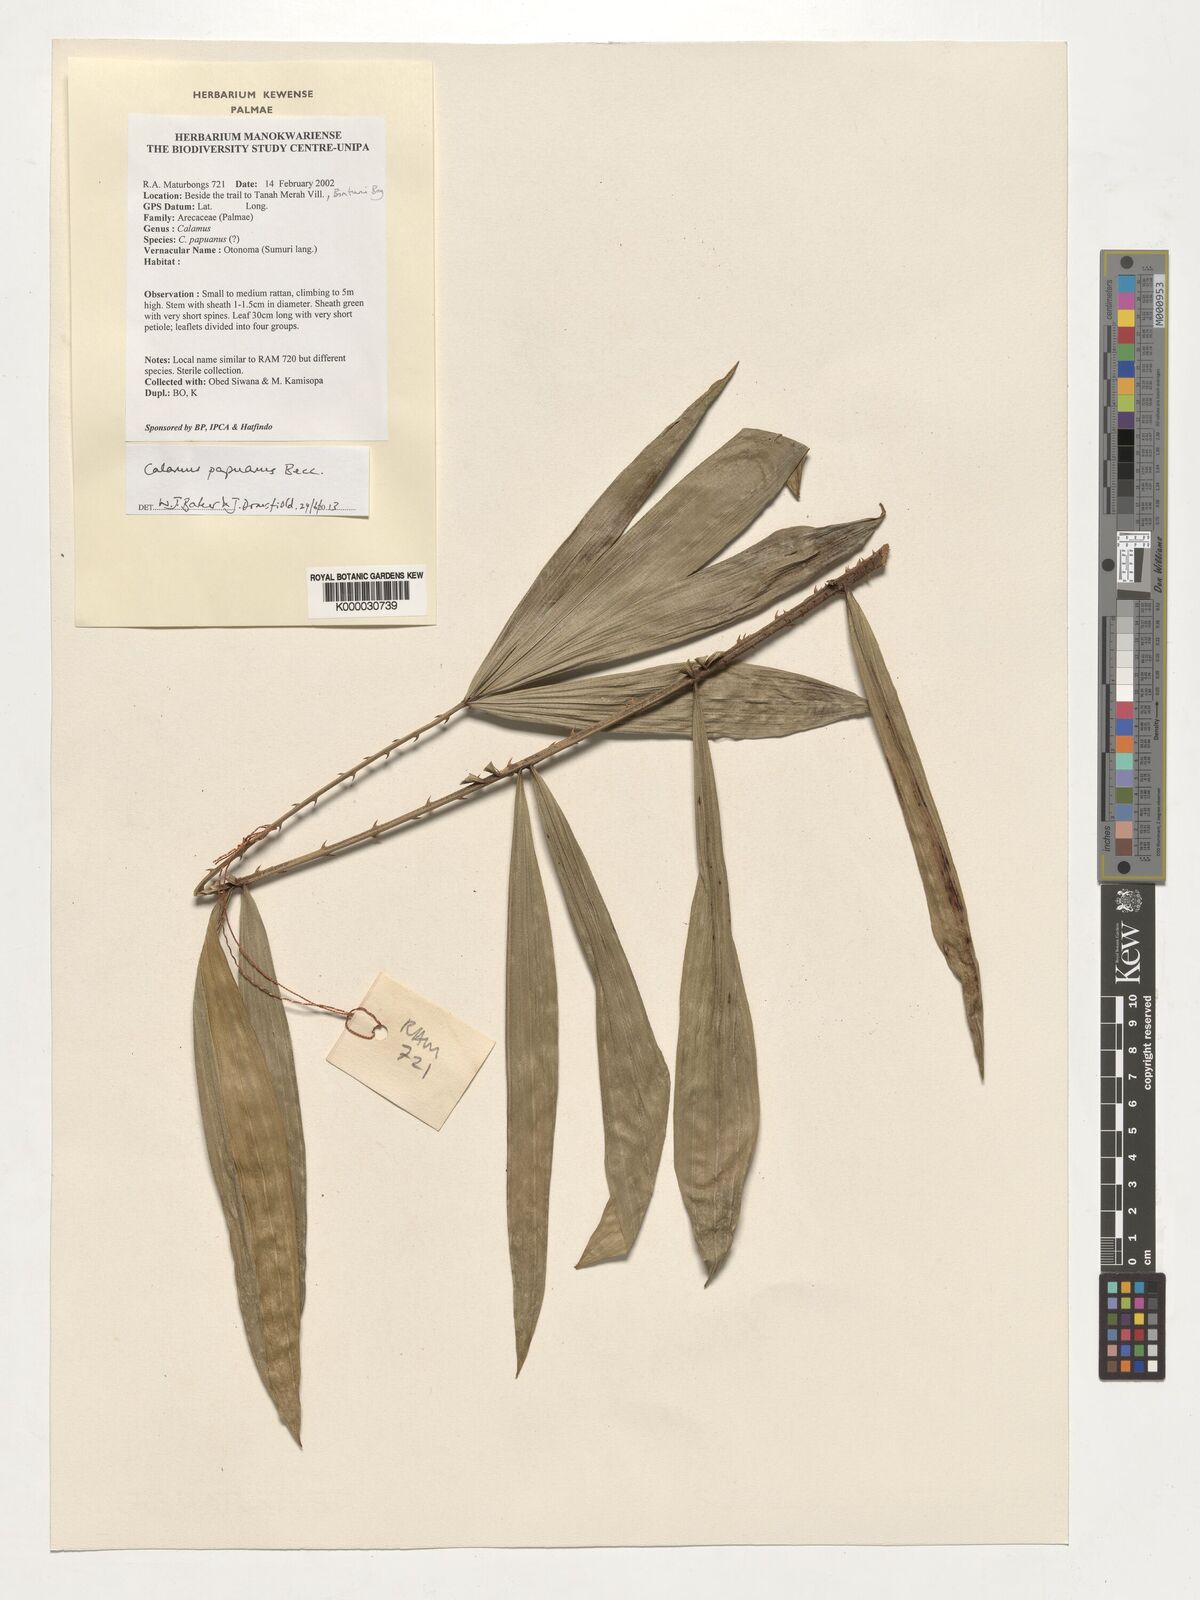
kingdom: Plantae
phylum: Tracheophyta
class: Liliopsida
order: Arecales
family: Arecaceae
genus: Calamus
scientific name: Calamus papuanus
